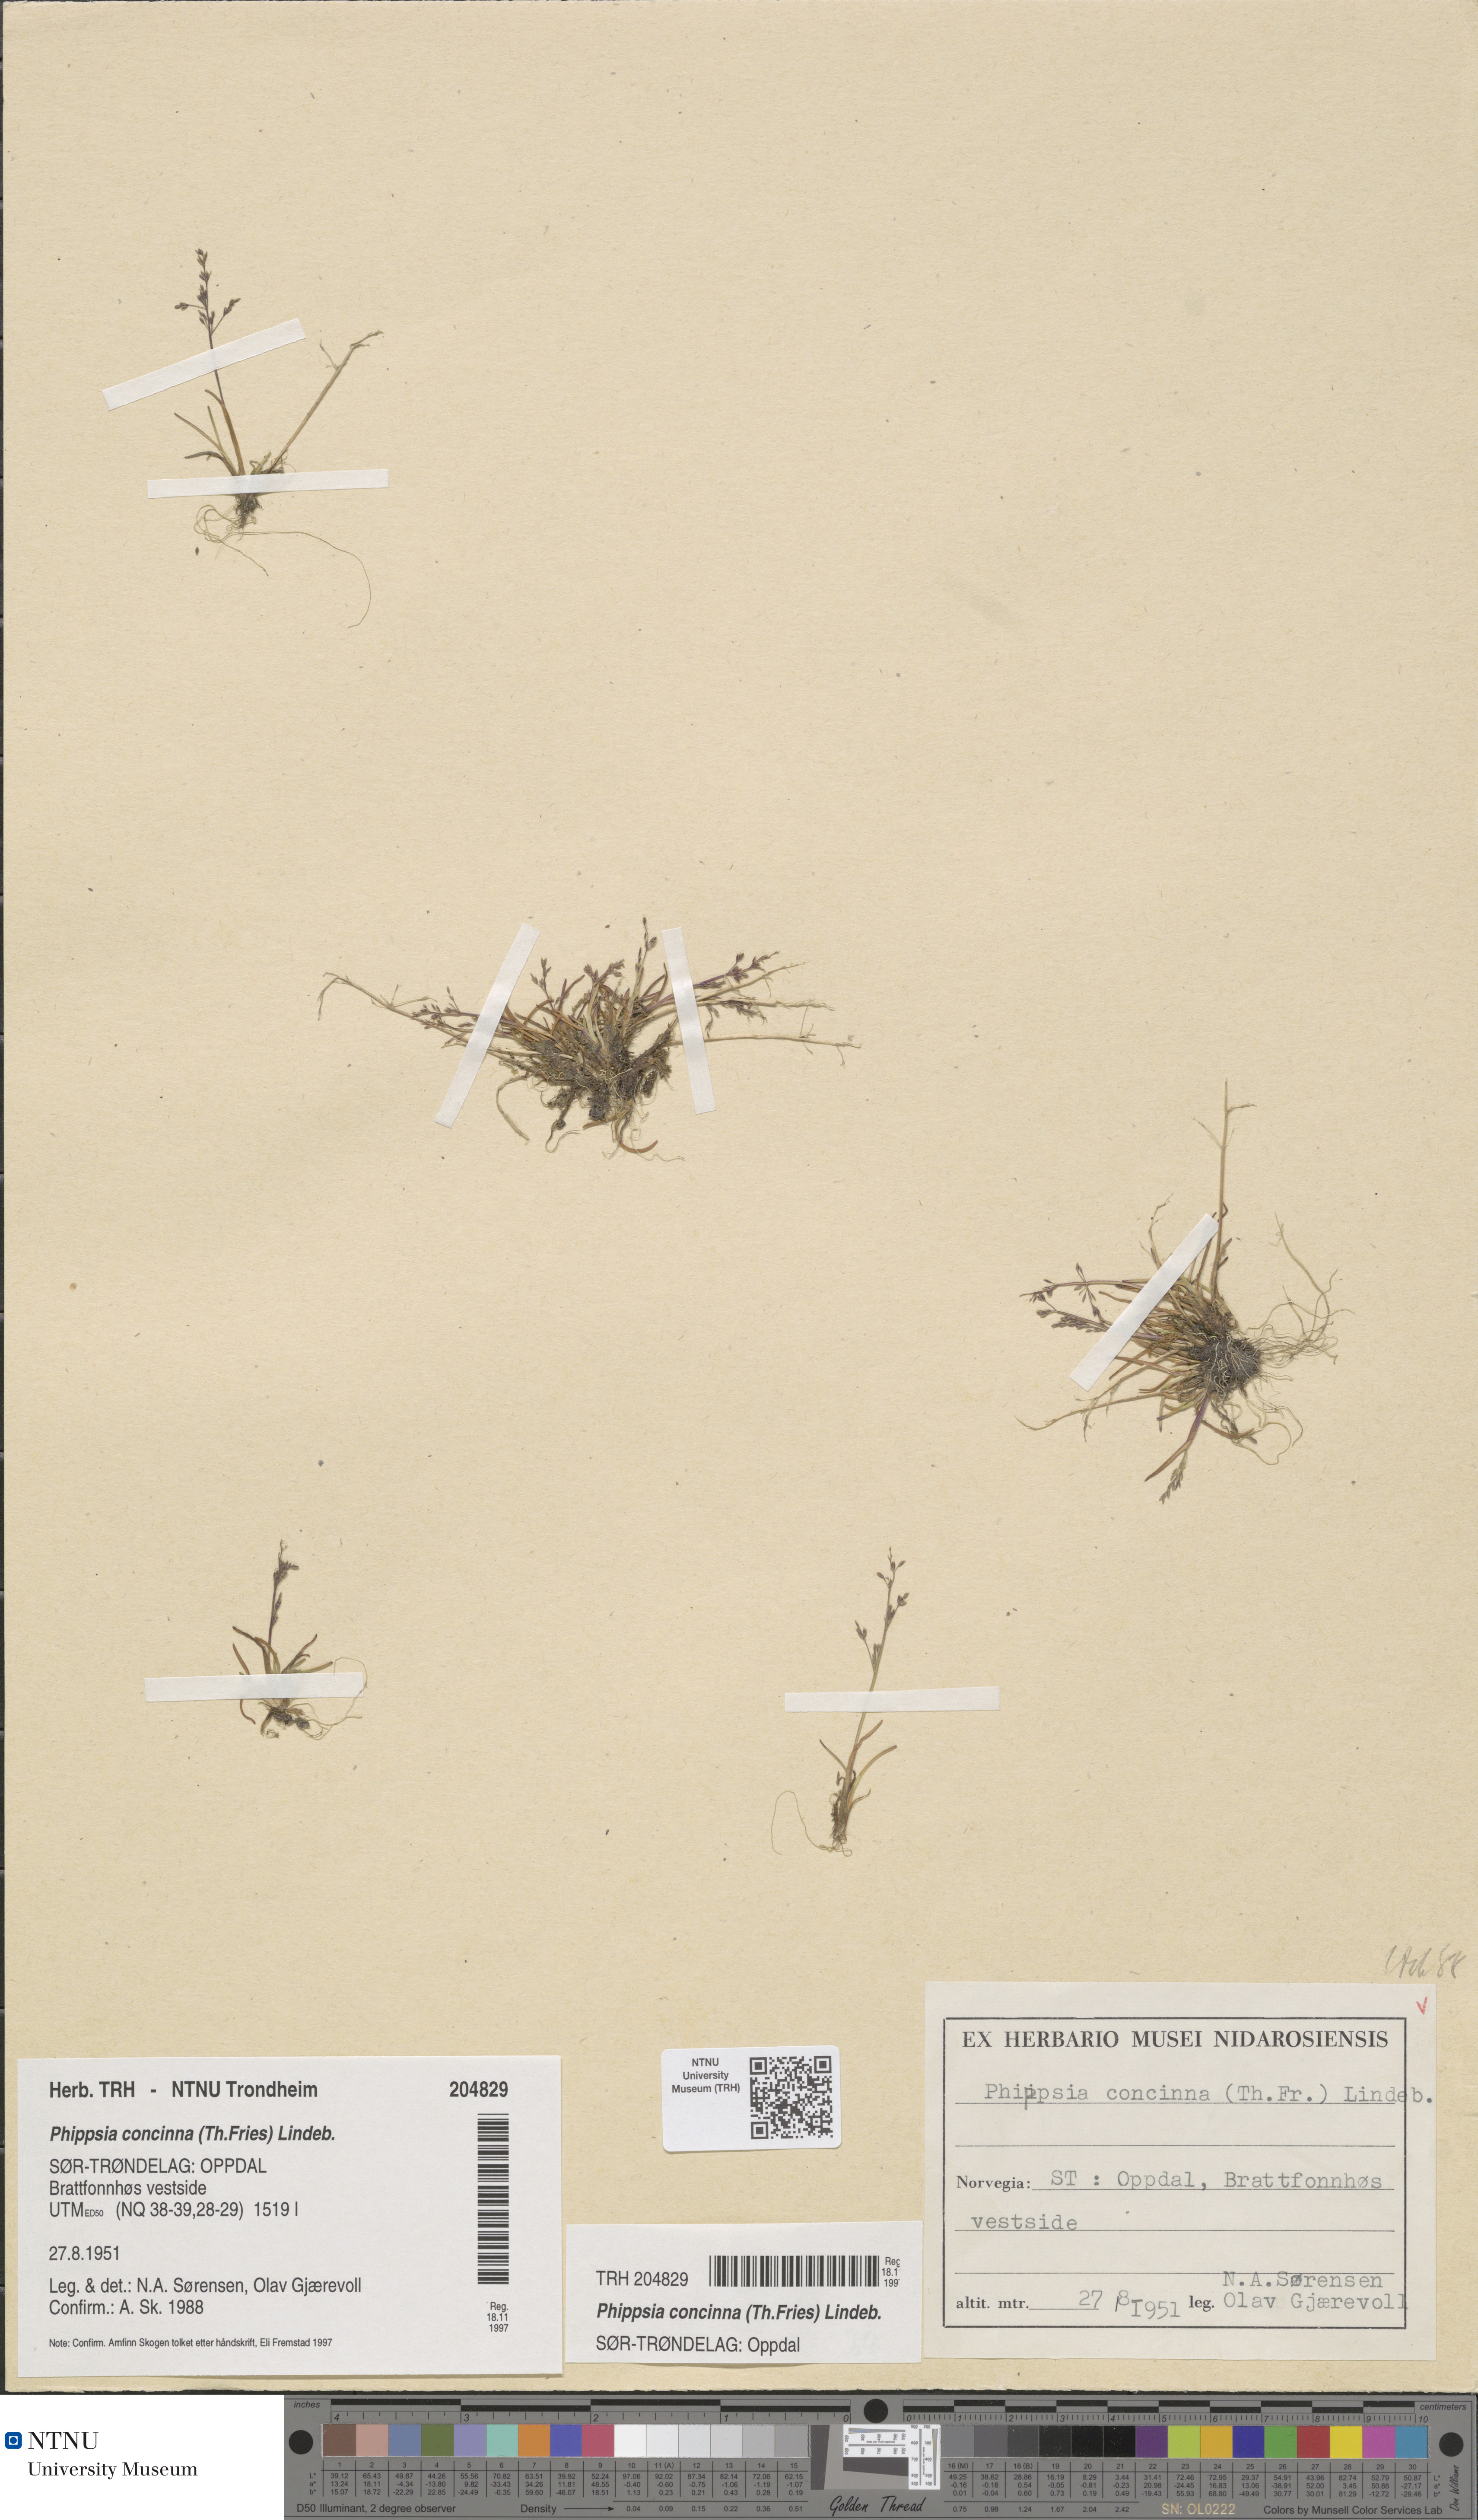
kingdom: Plantae
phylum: Tracheophyta
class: Liliopsida
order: Poales
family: Poaceae
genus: Phippsia
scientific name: Phippsia concinna
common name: Snowgrass
